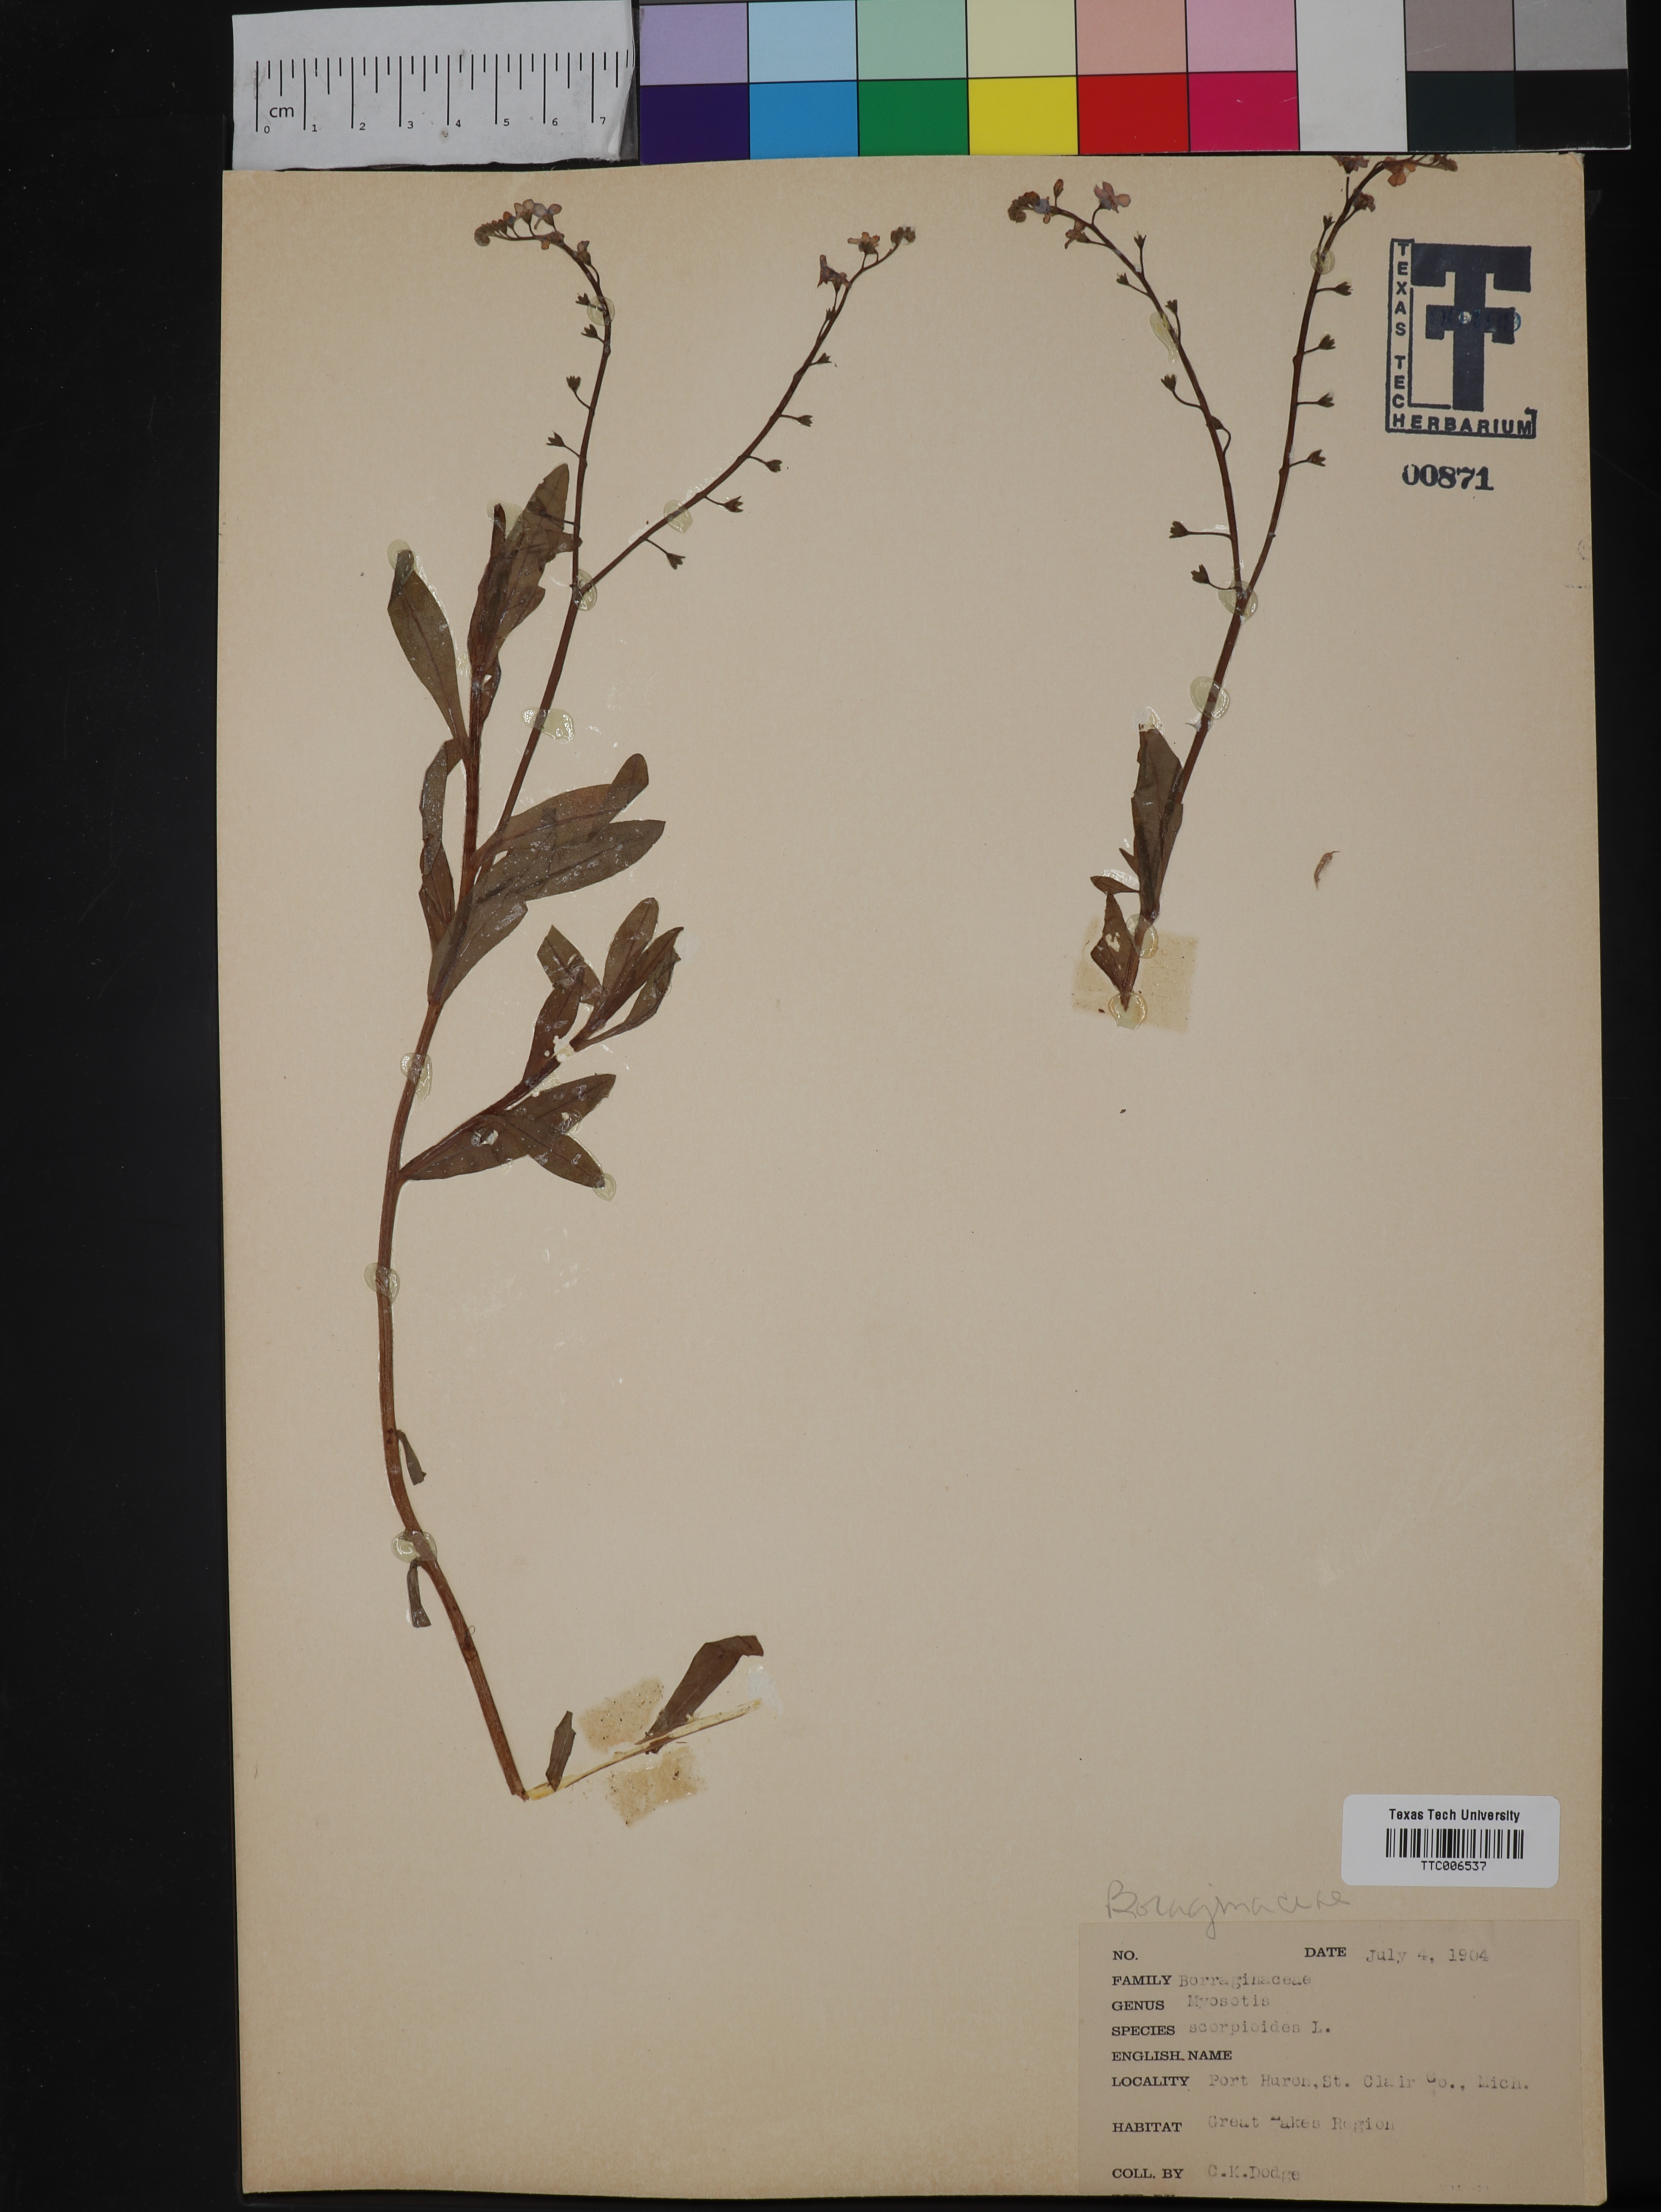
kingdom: Plantae
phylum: Tracheophyta
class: Magnoliopsida
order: Boraginales
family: Boraginaceae
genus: Myosotis
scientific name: Myosotis scorpioides
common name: Water forget-me-not
